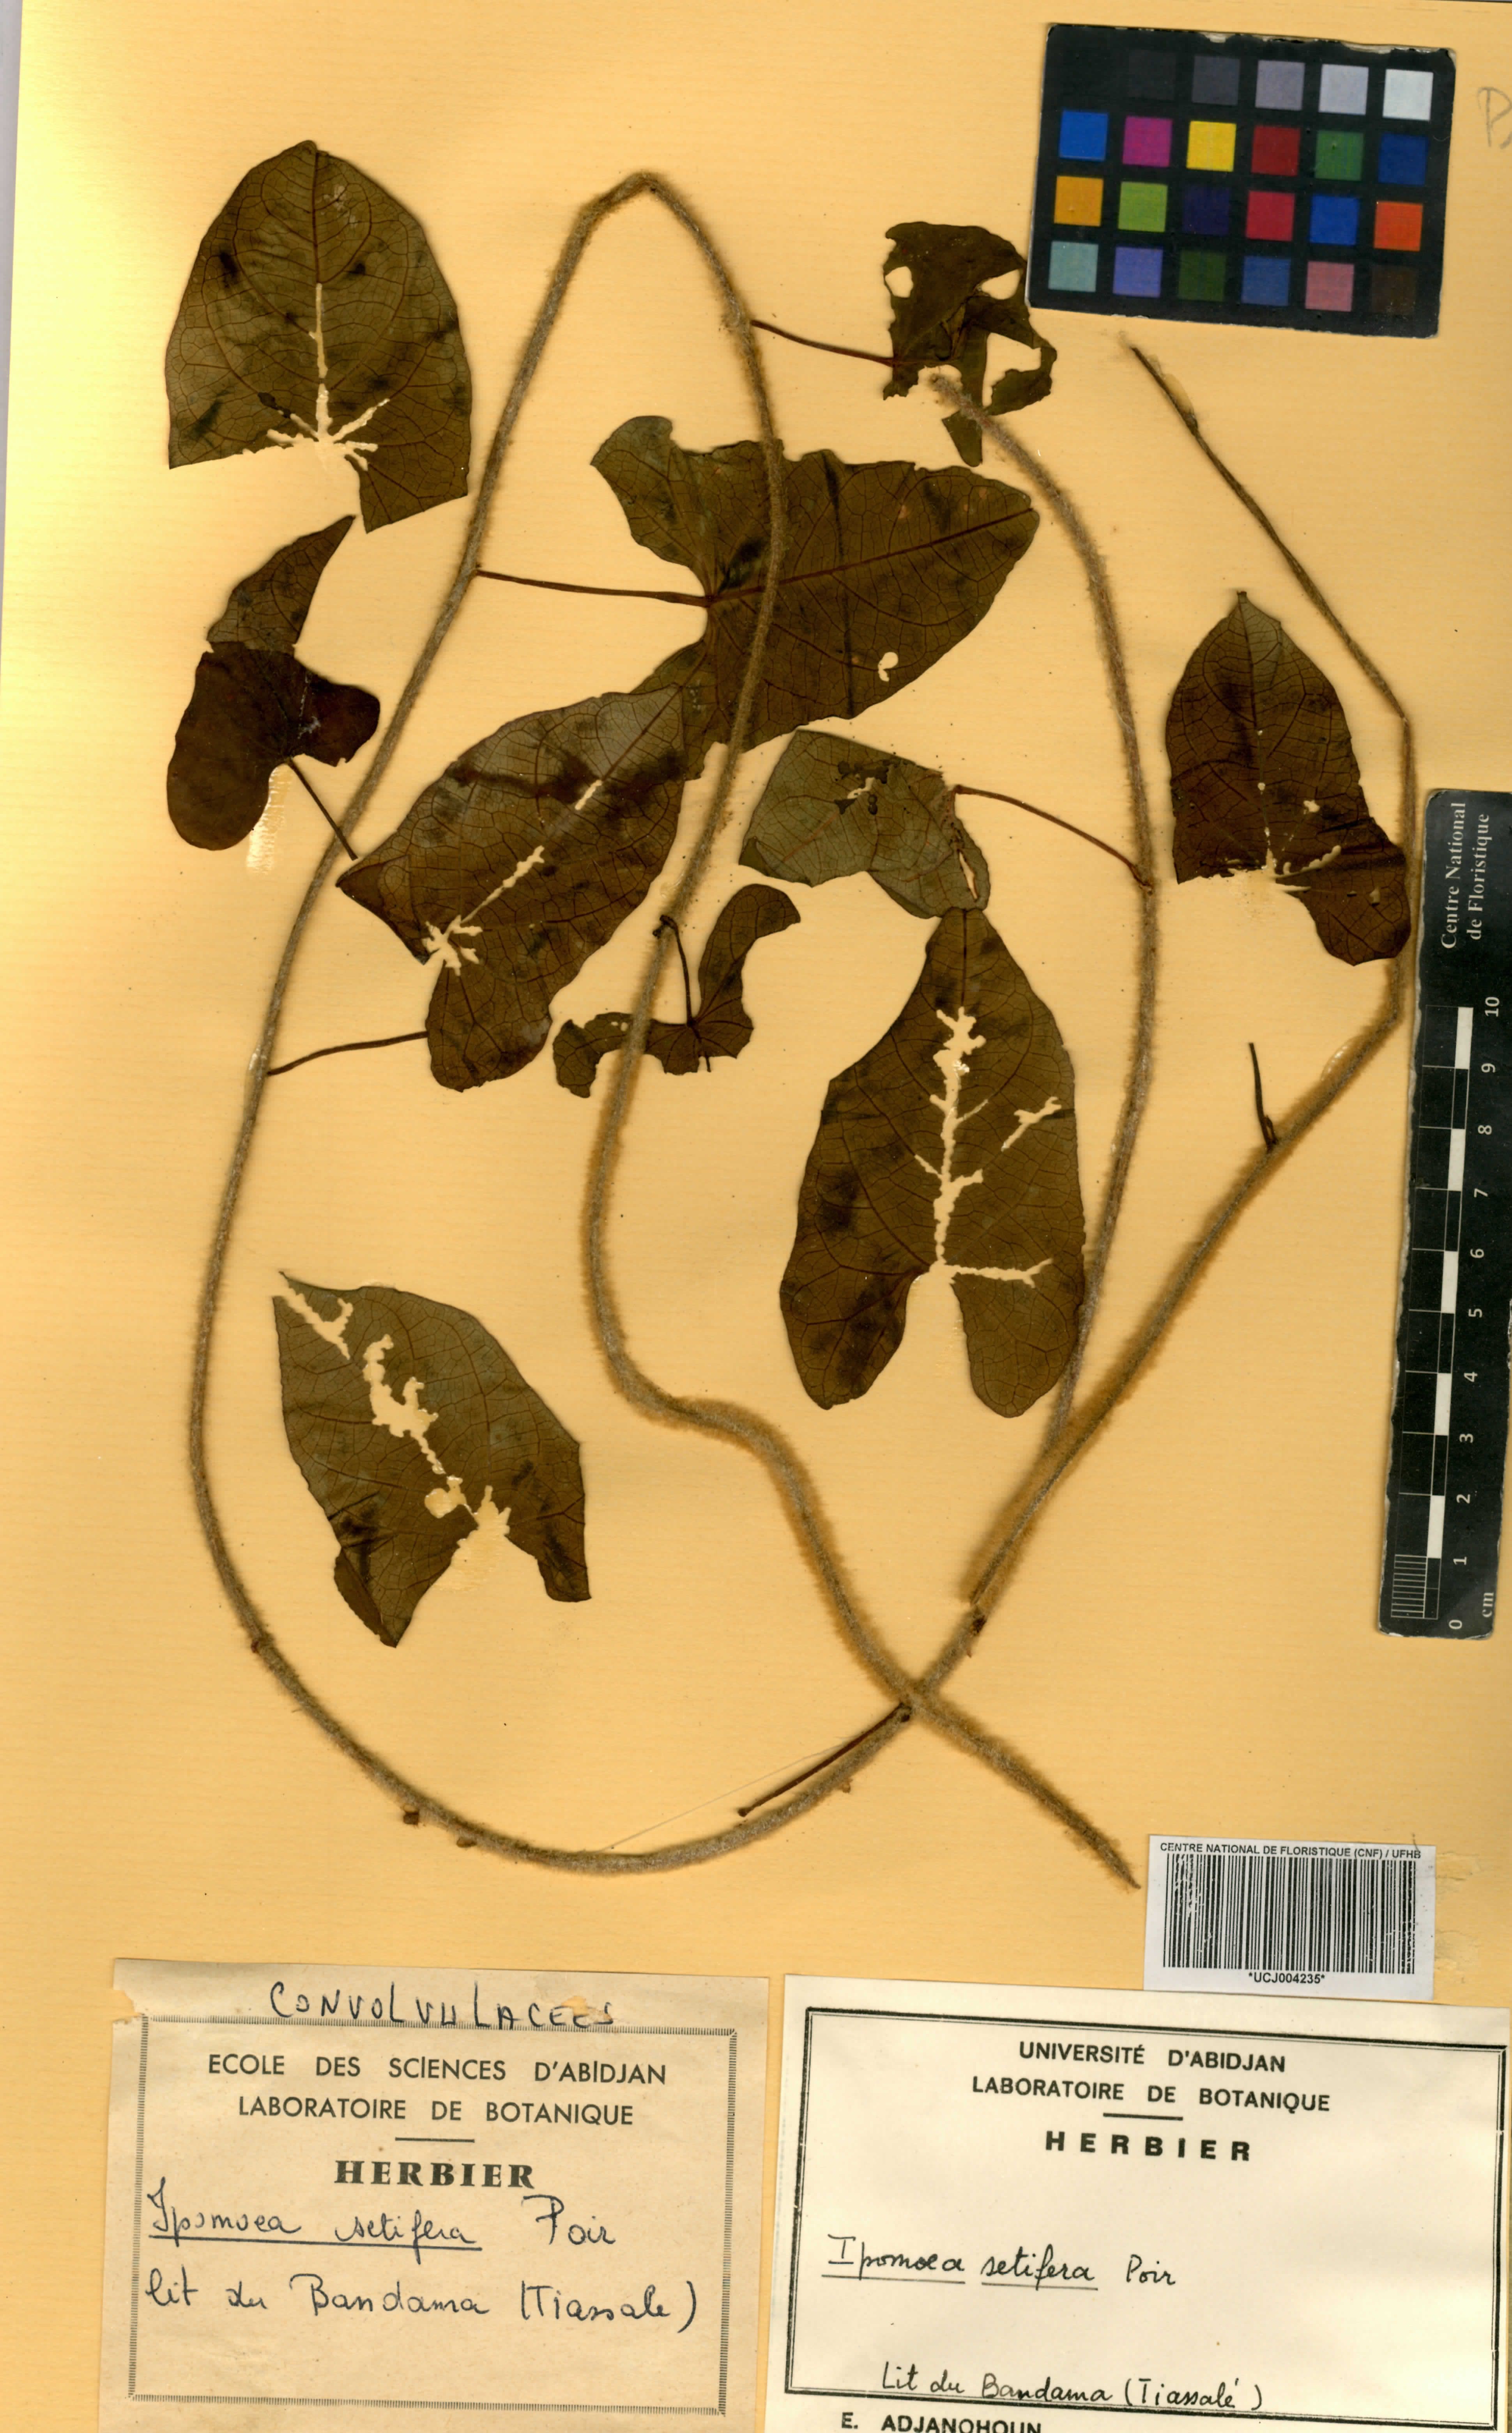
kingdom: Plantae
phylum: Tracheophyta
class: Magnoliopsida
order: Solanales
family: Convolvulaceae
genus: Ipomoea
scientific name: Ipomoea setifera
